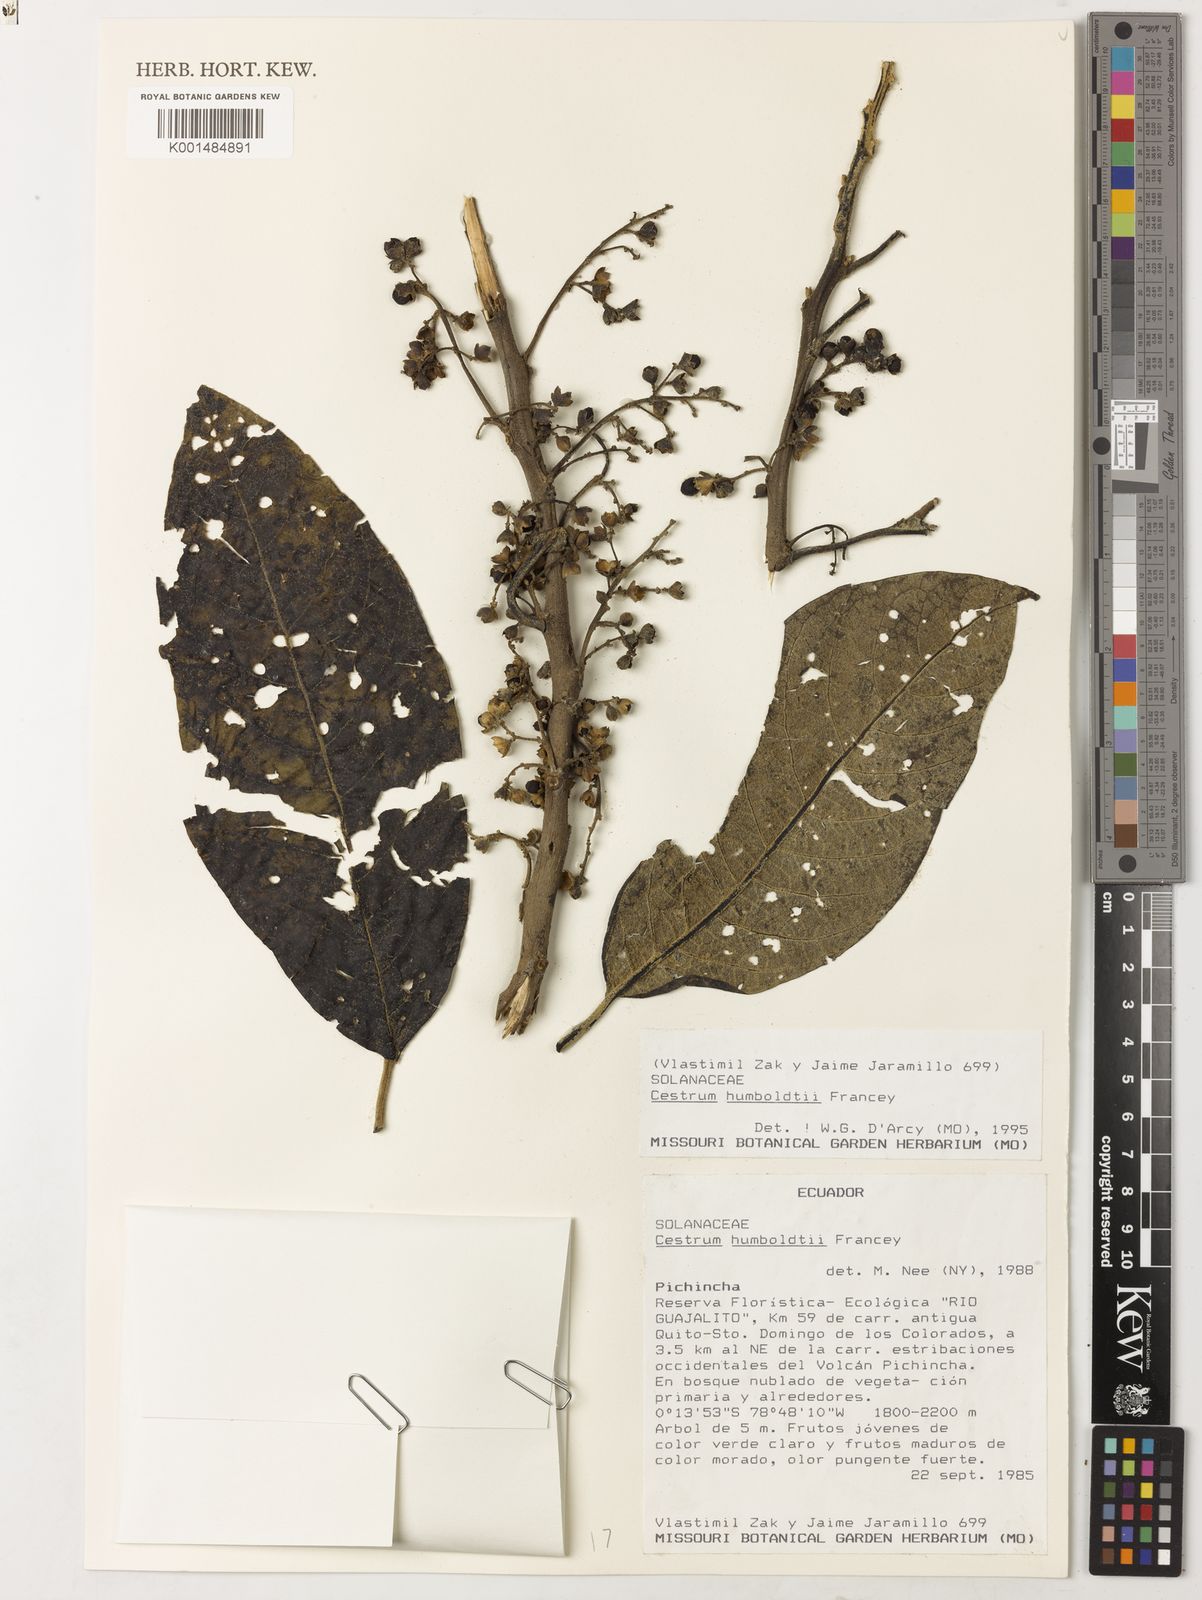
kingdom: Plantae
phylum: Tracheophyta
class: Magnoliopsida
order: Solanales
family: Solanaceae
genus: Cestrum
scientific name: Cestrum humboldtii
